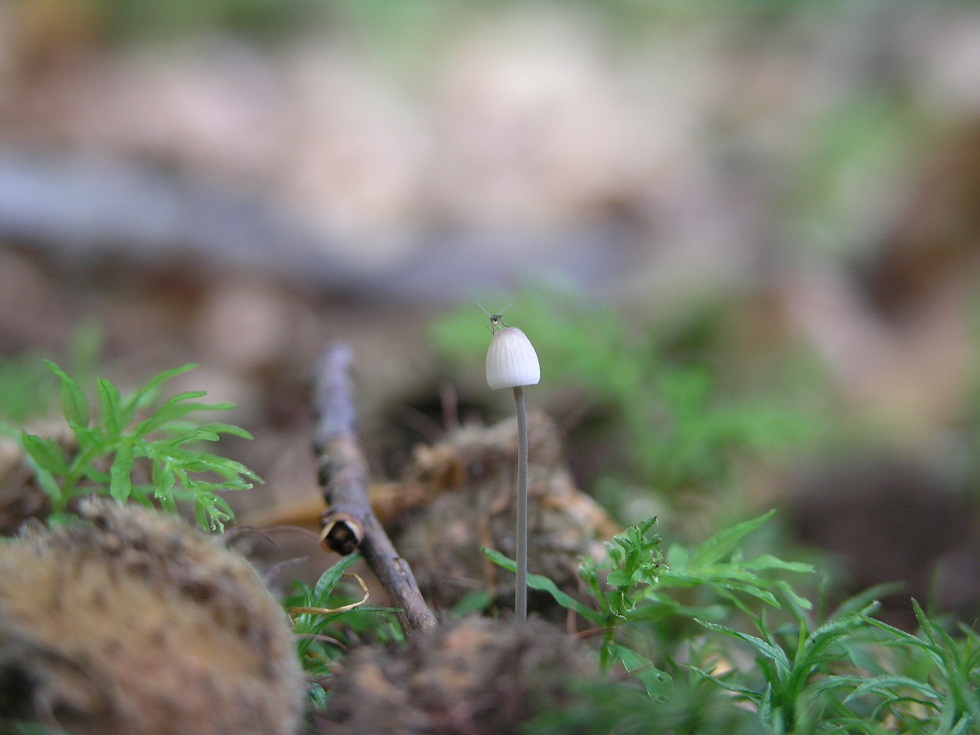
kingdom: Fungi
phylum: Basidiomycota
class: Agaricomycetes
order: Agaricales
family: Mycenaceae
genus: Mycena
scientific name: Mycena vitilis
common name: blankstokket huesvamp
